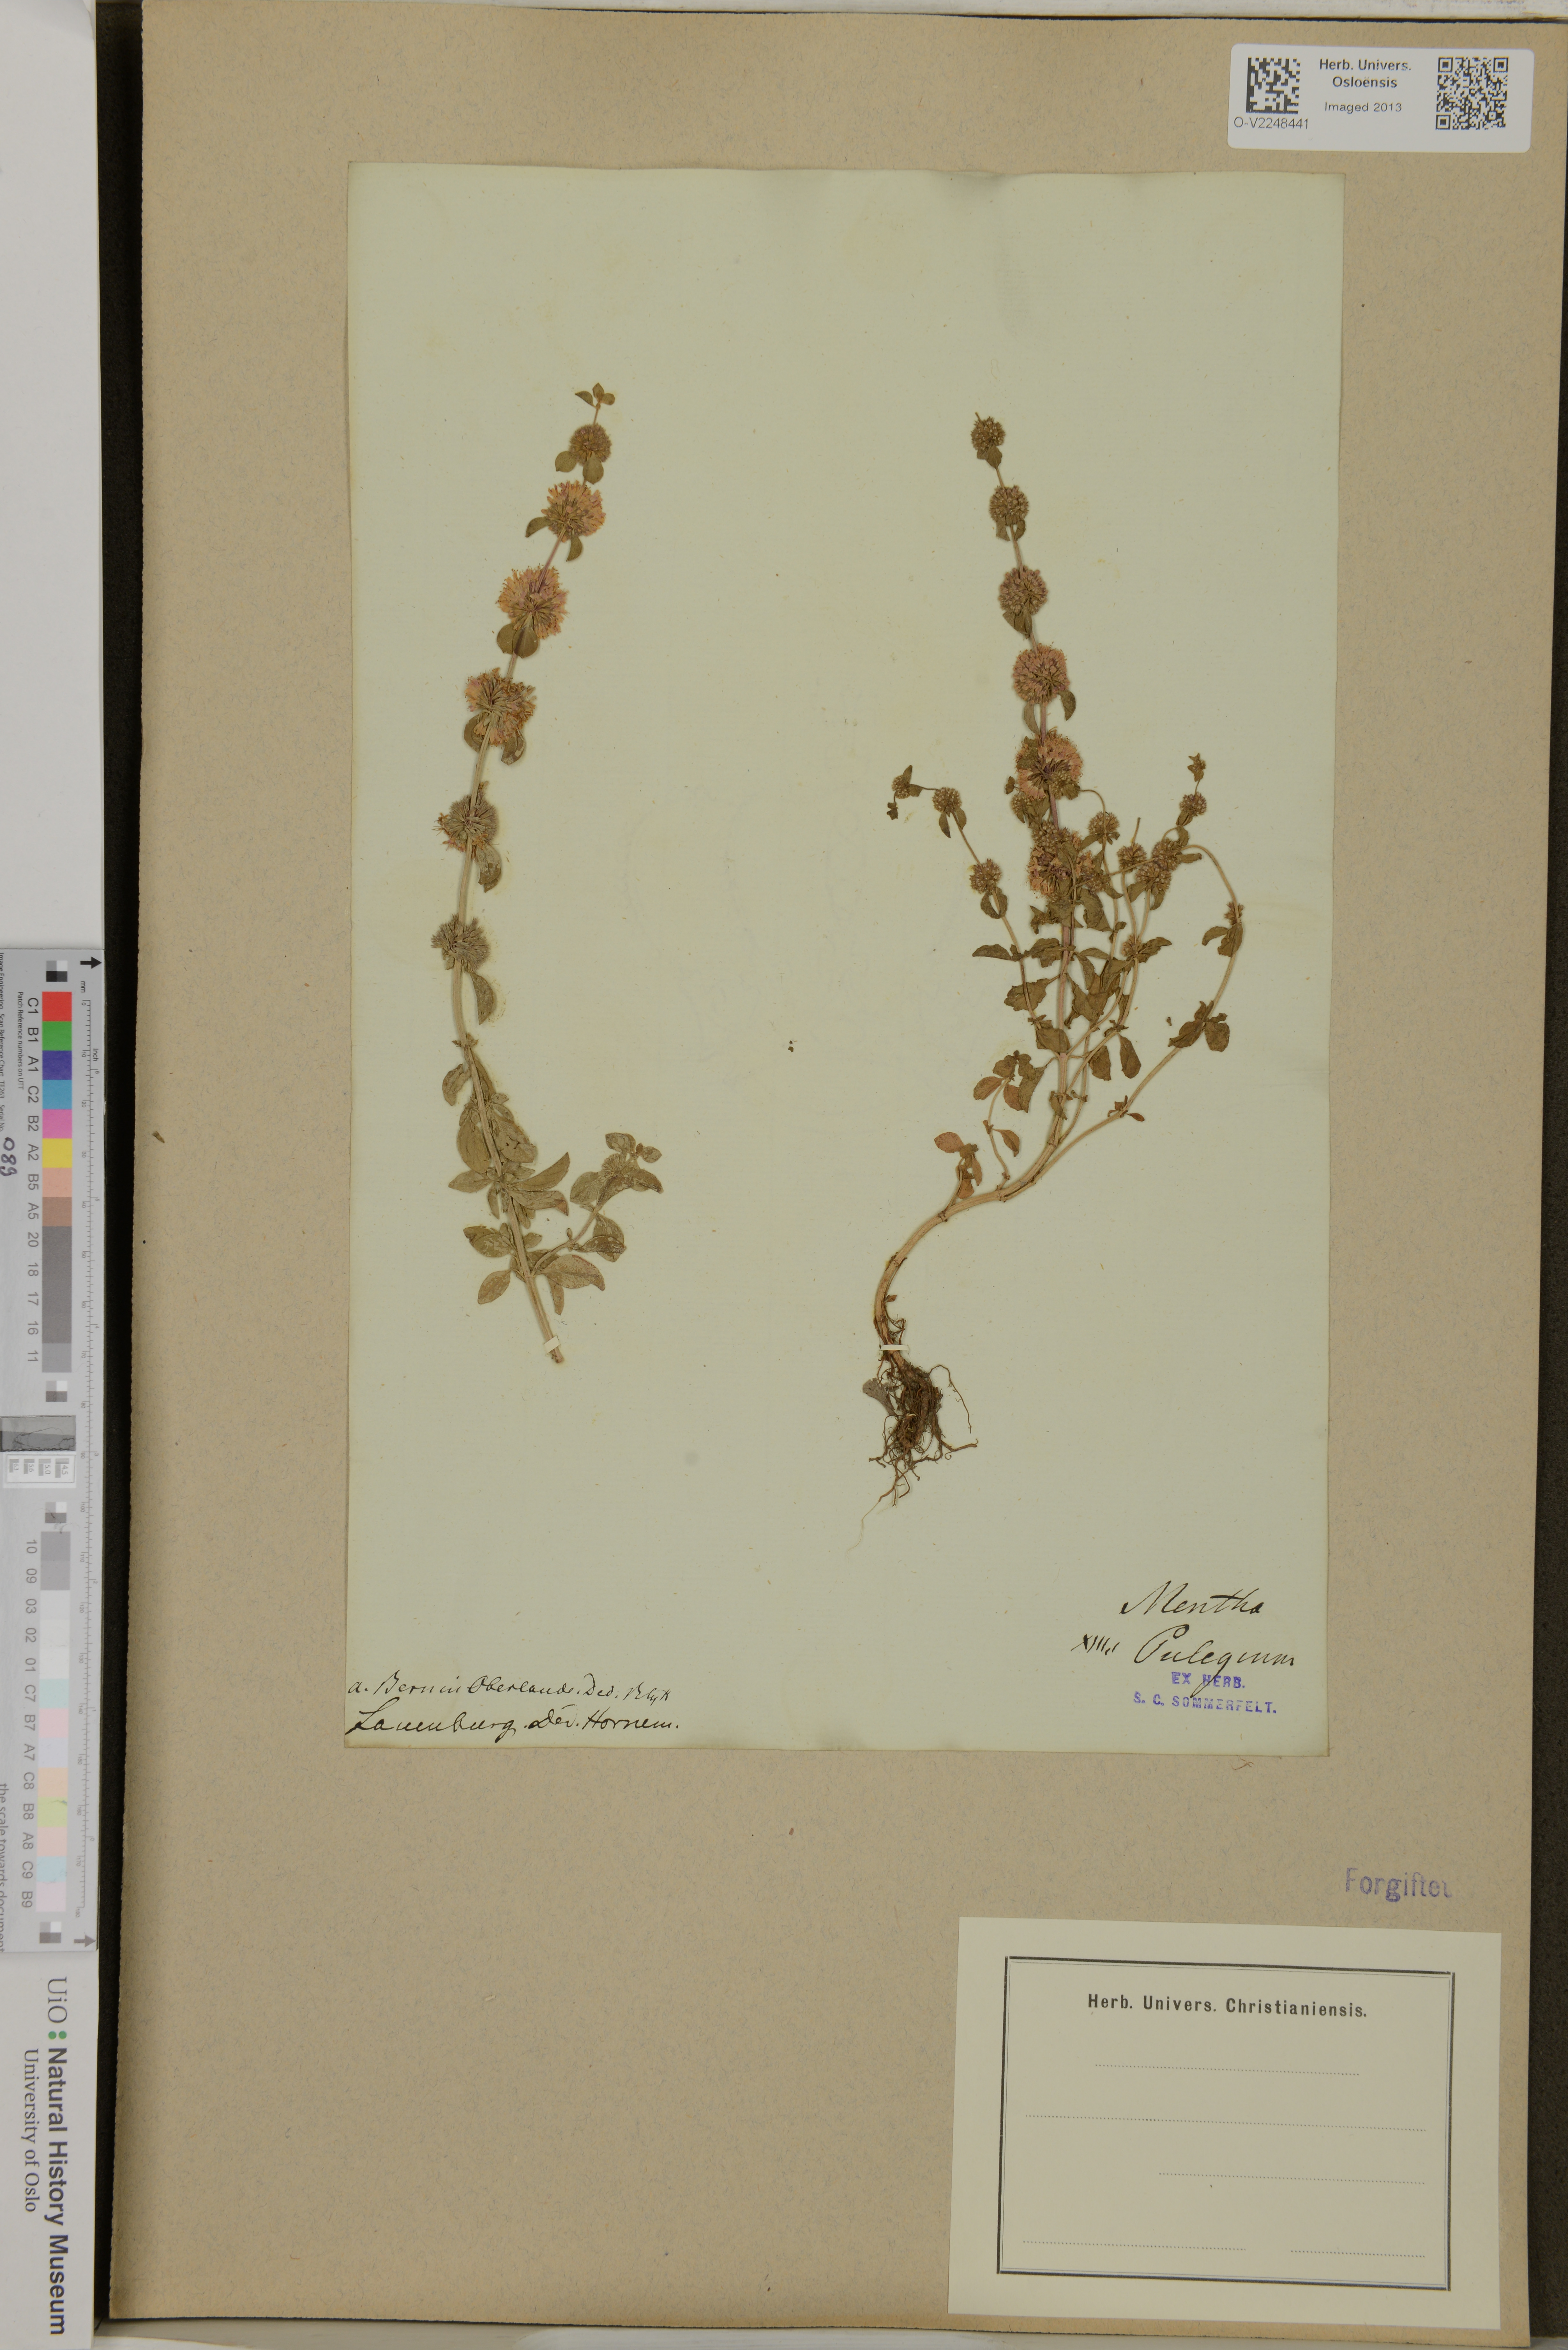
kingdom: Plantae
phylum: Tracheophyta
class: Magnoliopsida
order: Lamiales
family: Lamiaceae
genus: Mentha
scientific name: Mentha pulegium
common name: Pennyroyal
